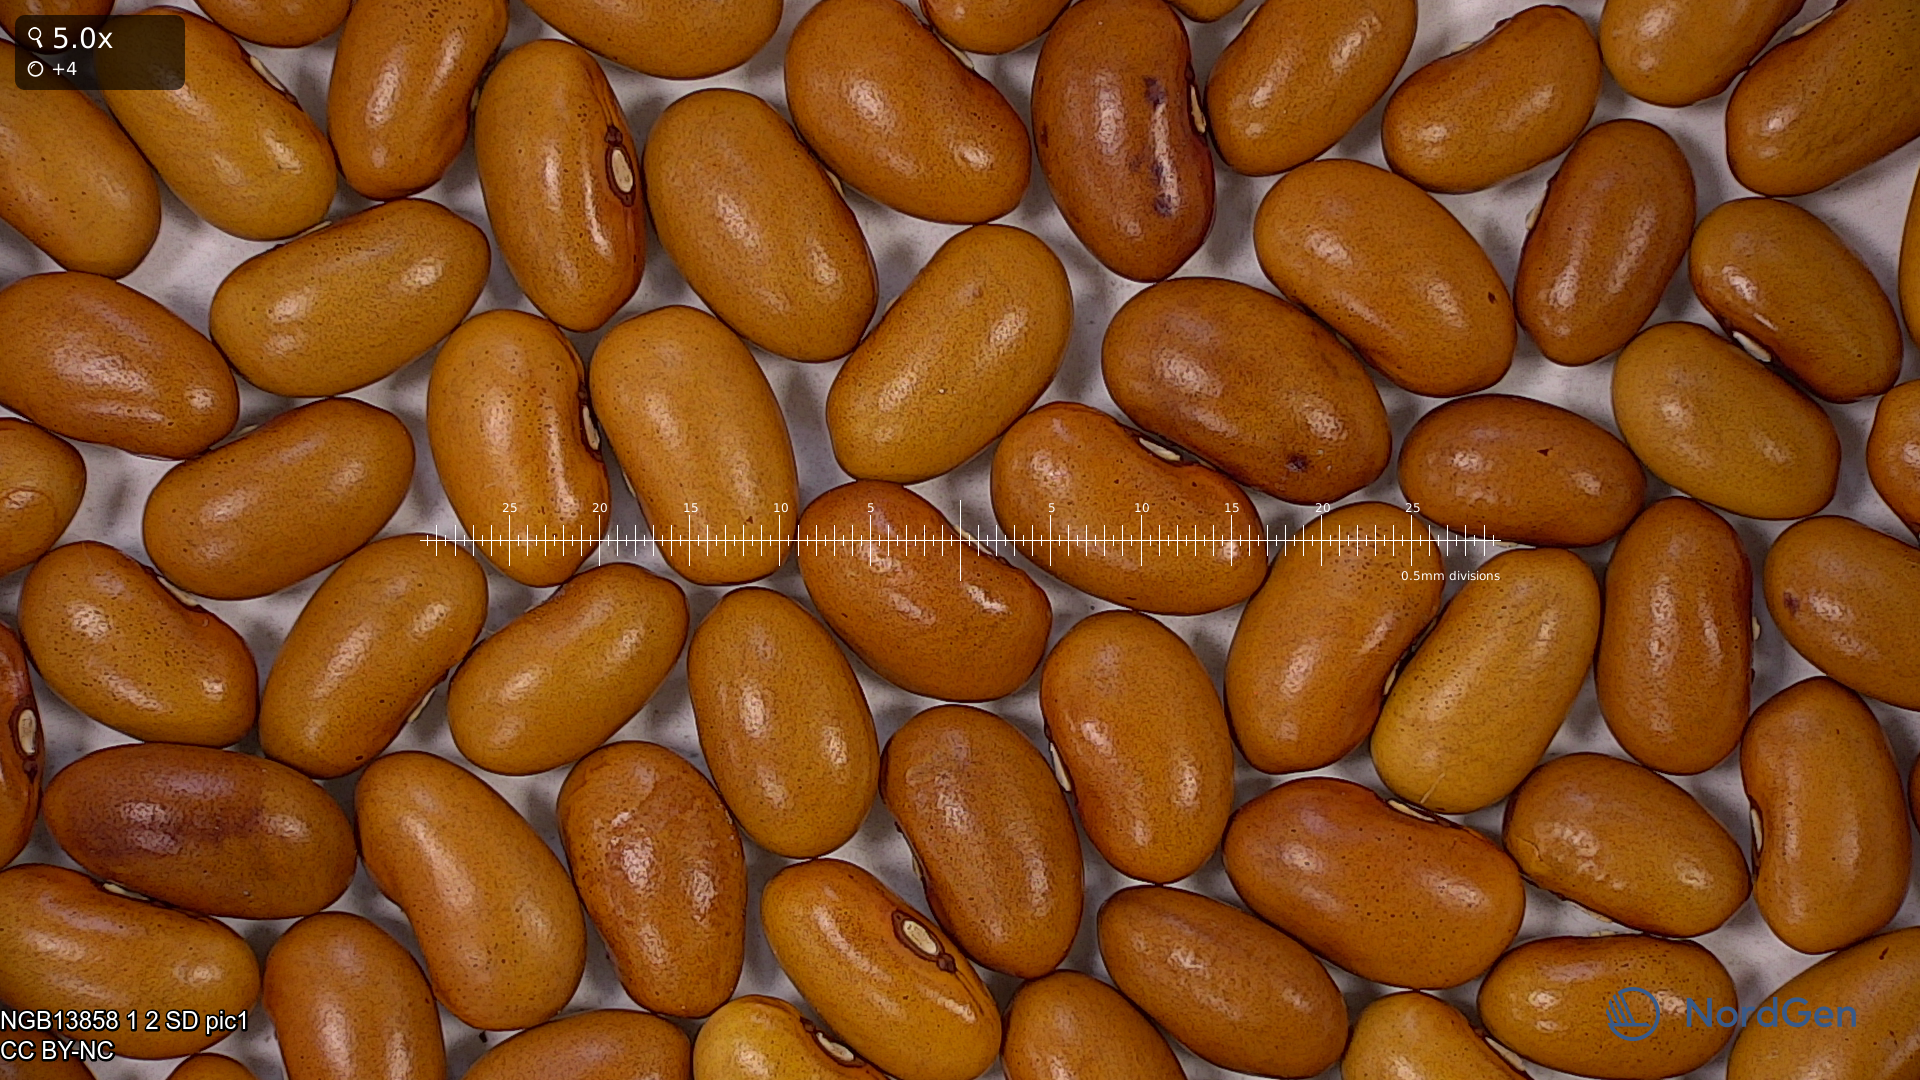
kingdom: Plantae
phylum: Tracheophyta
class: Magnoliopsida
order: Fabales
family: Fabaceae
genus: Phaseolus
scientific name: Phaseolus vulgaris
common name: Bean
